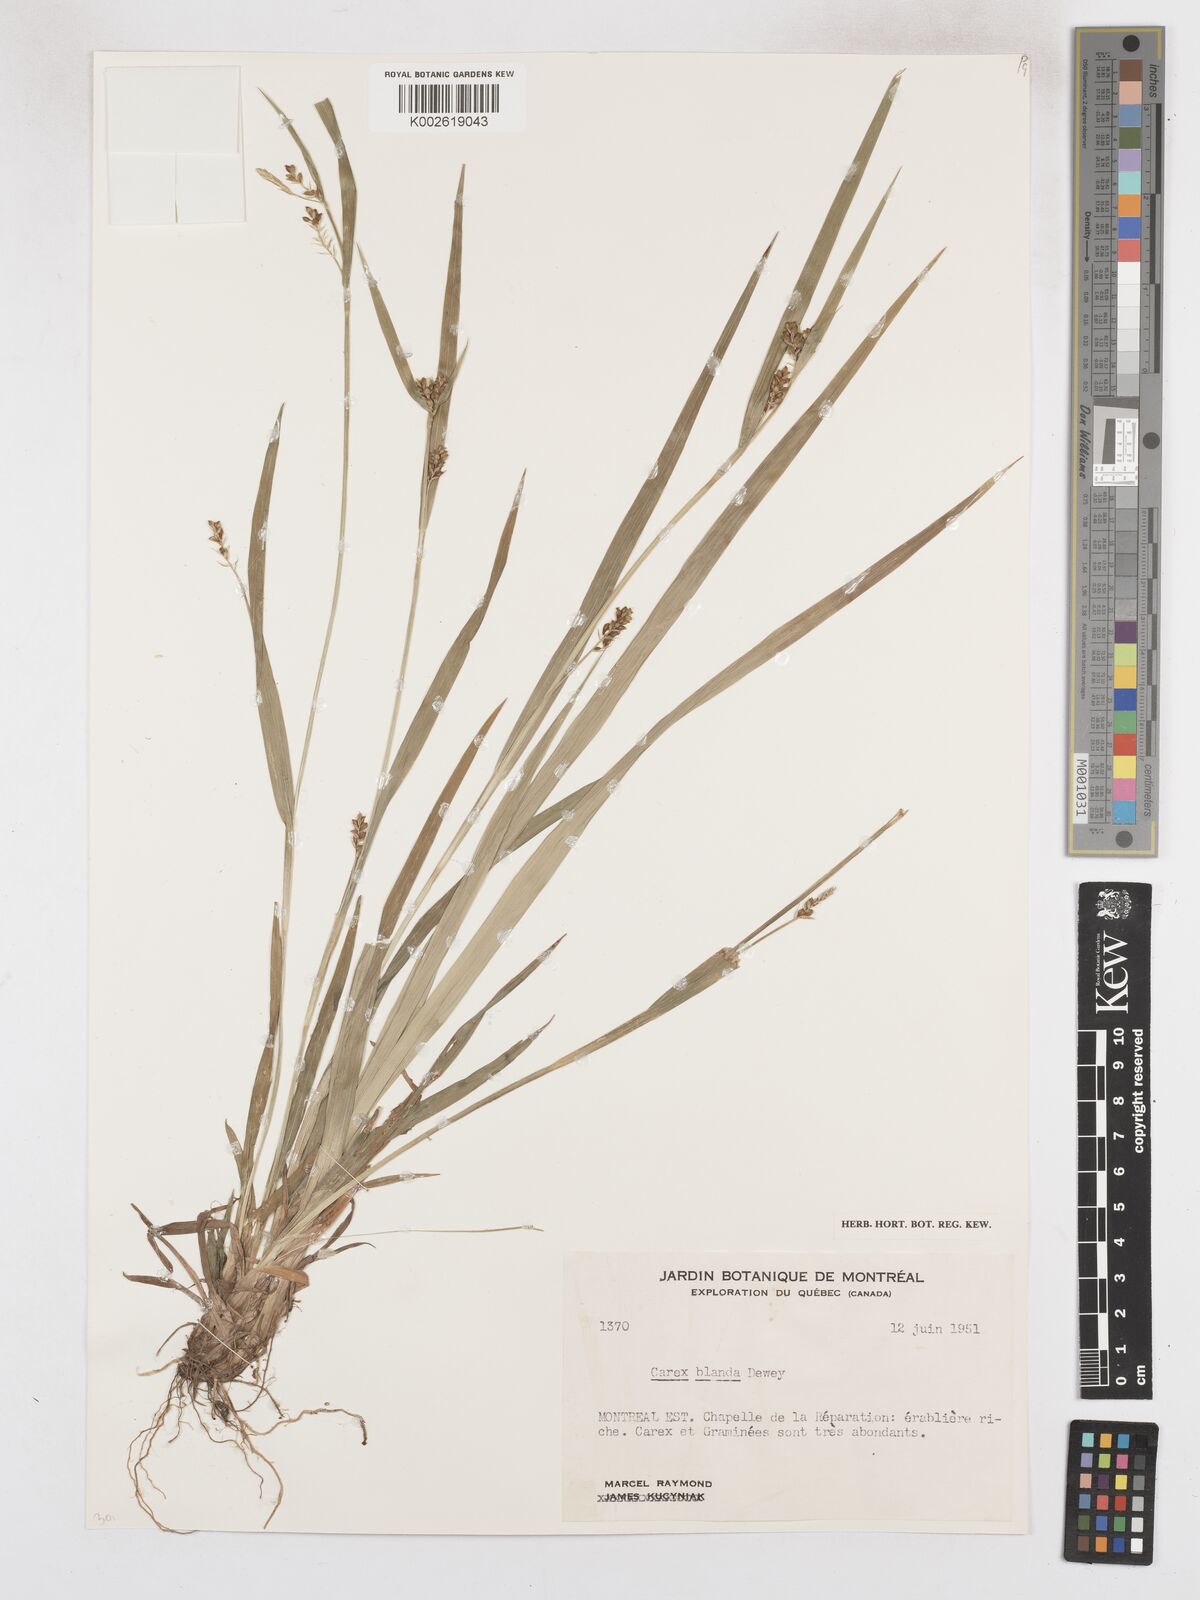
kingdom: Plantae
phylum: Tracheophyta
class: Liliopsida
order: Poales
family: Cyperaceae
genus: Carex
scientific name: Carex blanda
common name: Bland sedge
